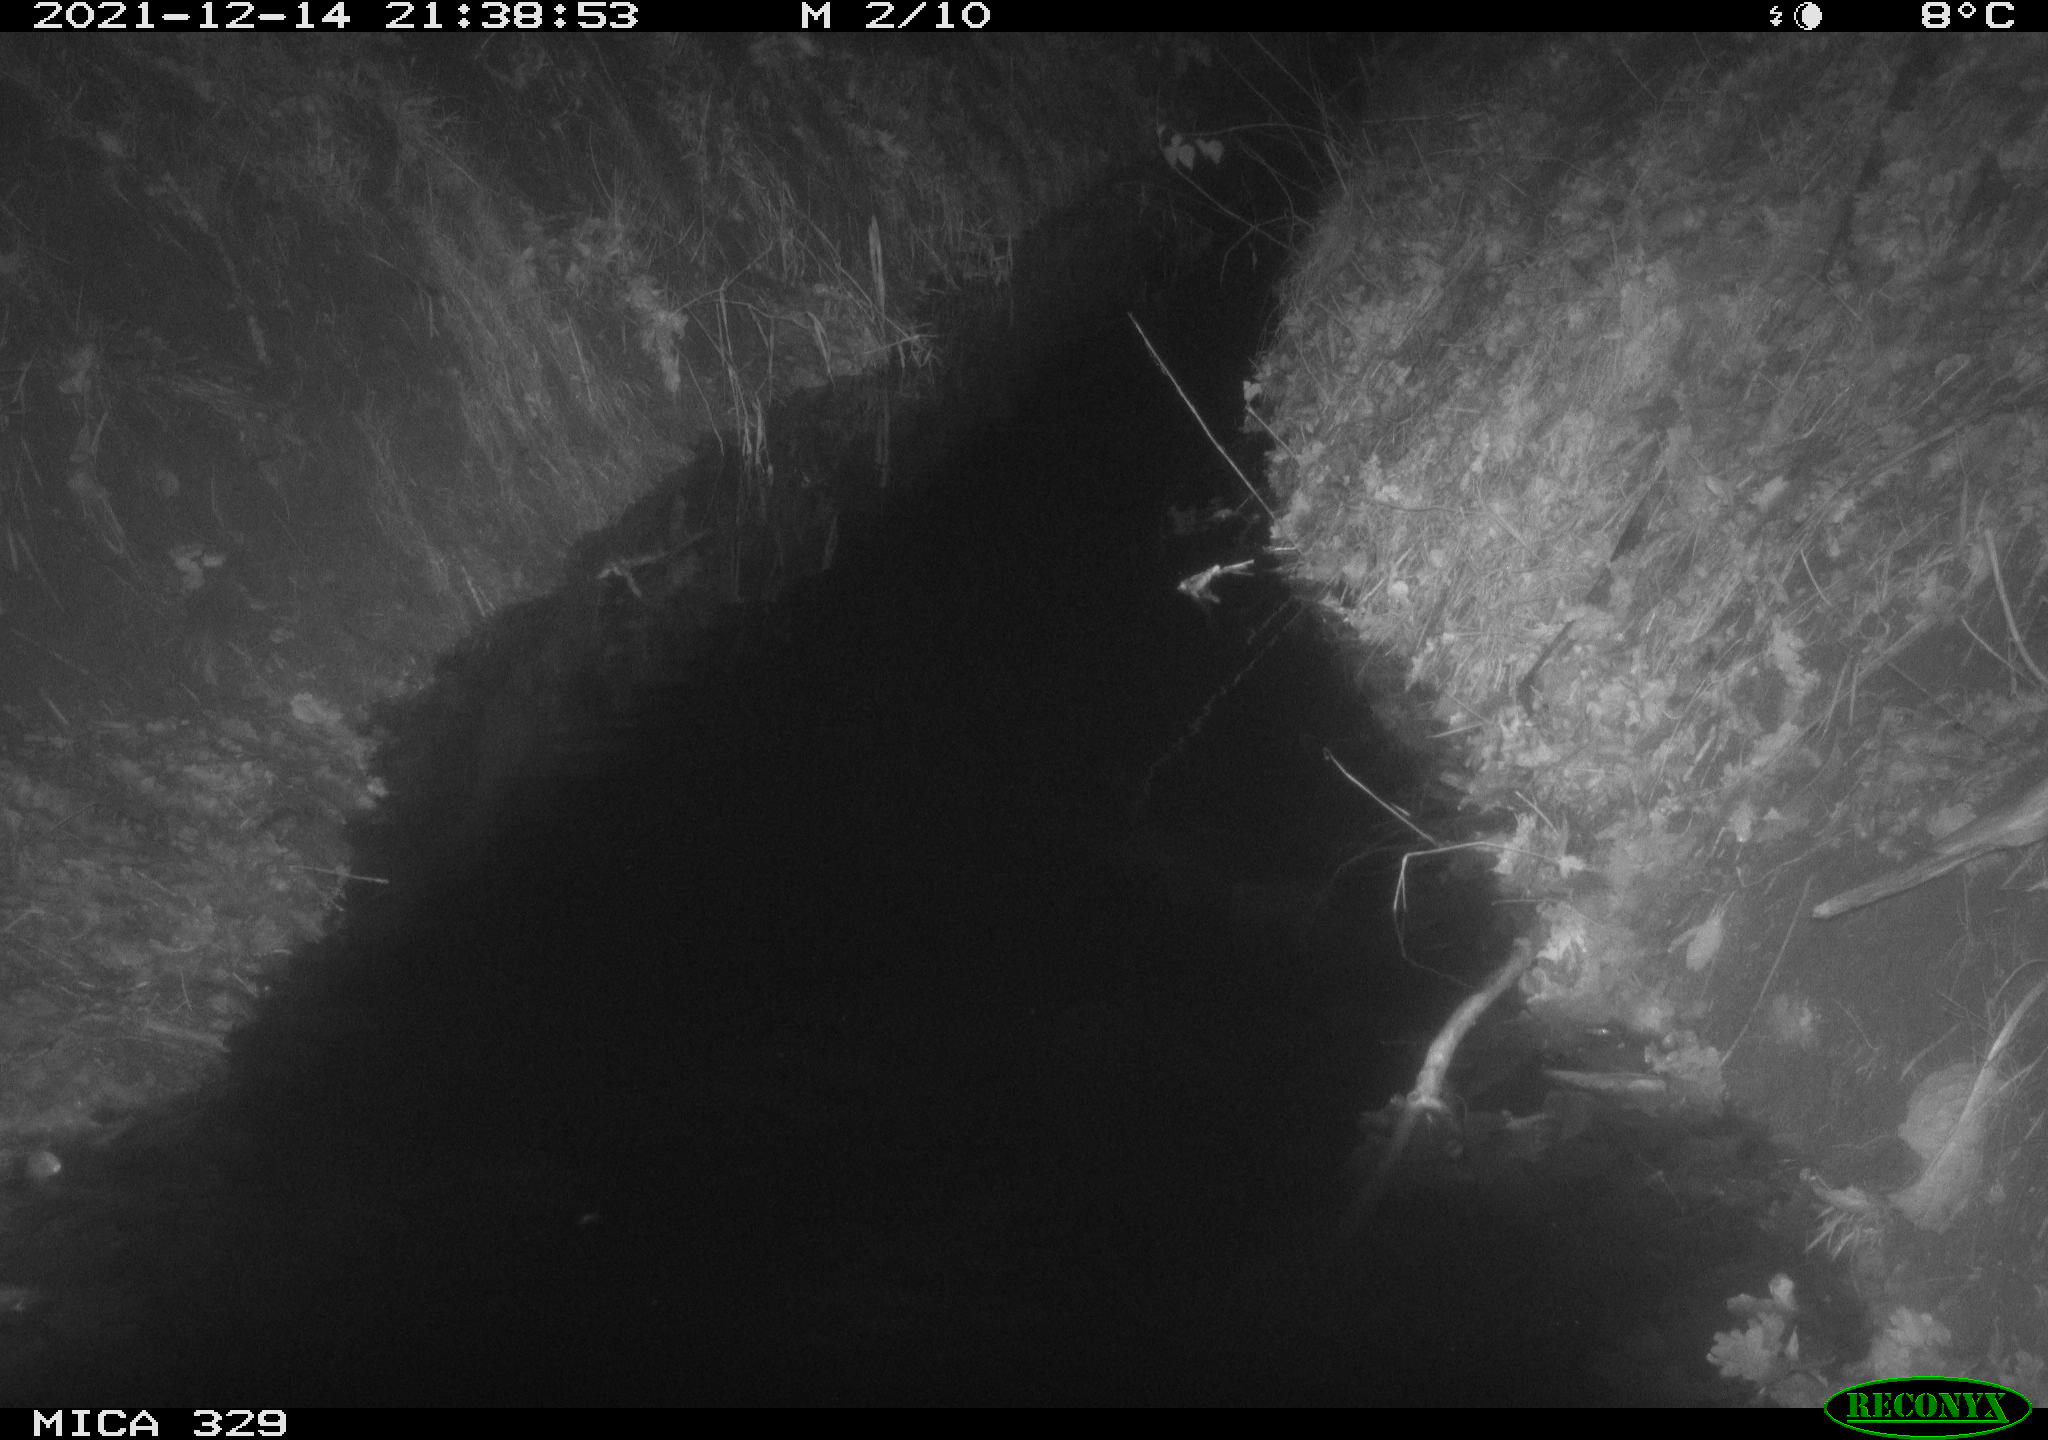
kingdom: Animalia
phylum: Chordata
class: Mammalia
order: Rodentia
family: Muridae
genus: Rattus
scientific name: Rattus norvegicus
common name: Brown rat
